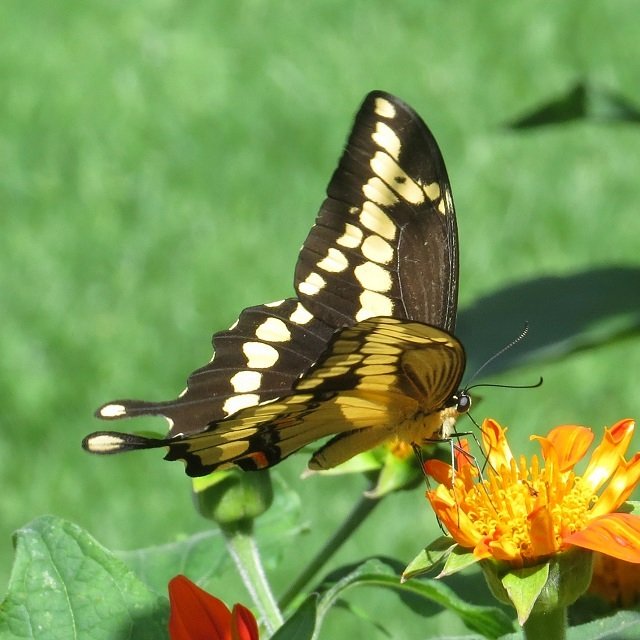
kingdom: Animalia
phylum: Arthropoda
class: Insecta
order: Lepidoptera
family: Papilionidae
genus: Papilio
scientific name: Papilio cresphontes
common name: Eastern Giant Swallowtail
